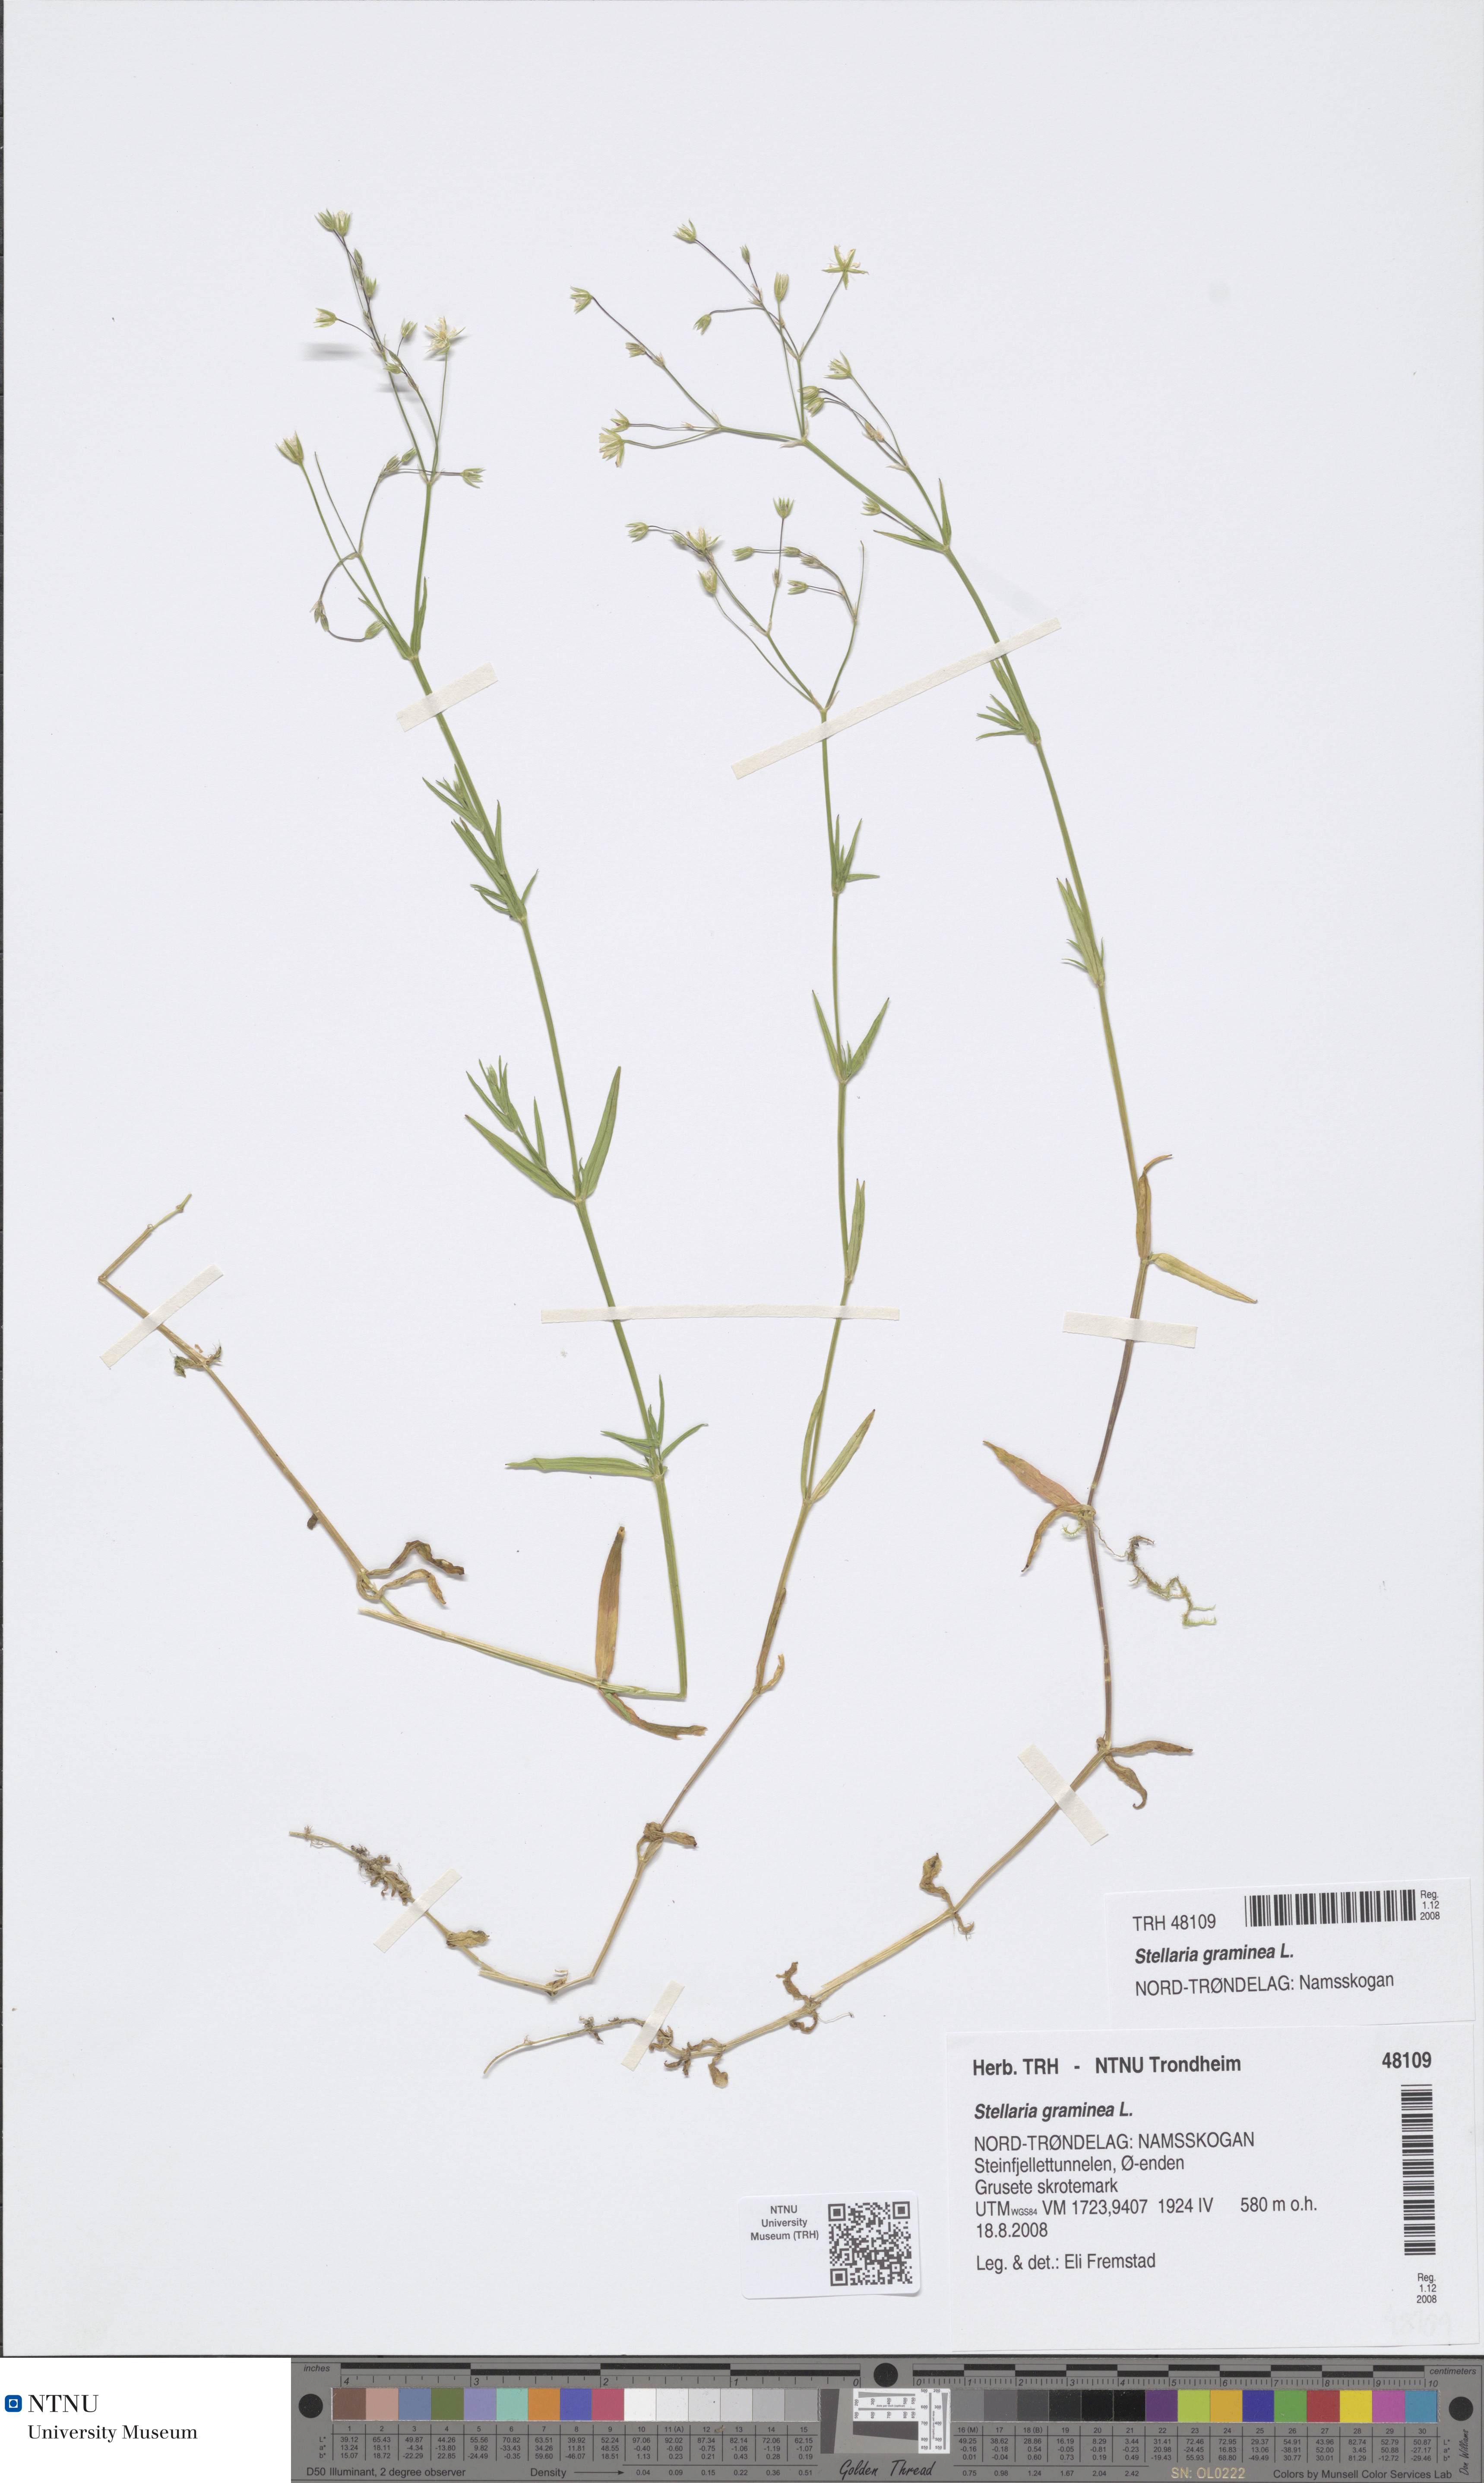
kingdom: Plantae
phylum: Tracheophyta
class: Magnoliopsida
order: Caryophyllales
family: Caryophyllaceae
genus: Stellaria
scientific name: Stellaria graminea
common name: Grass-like starwort
